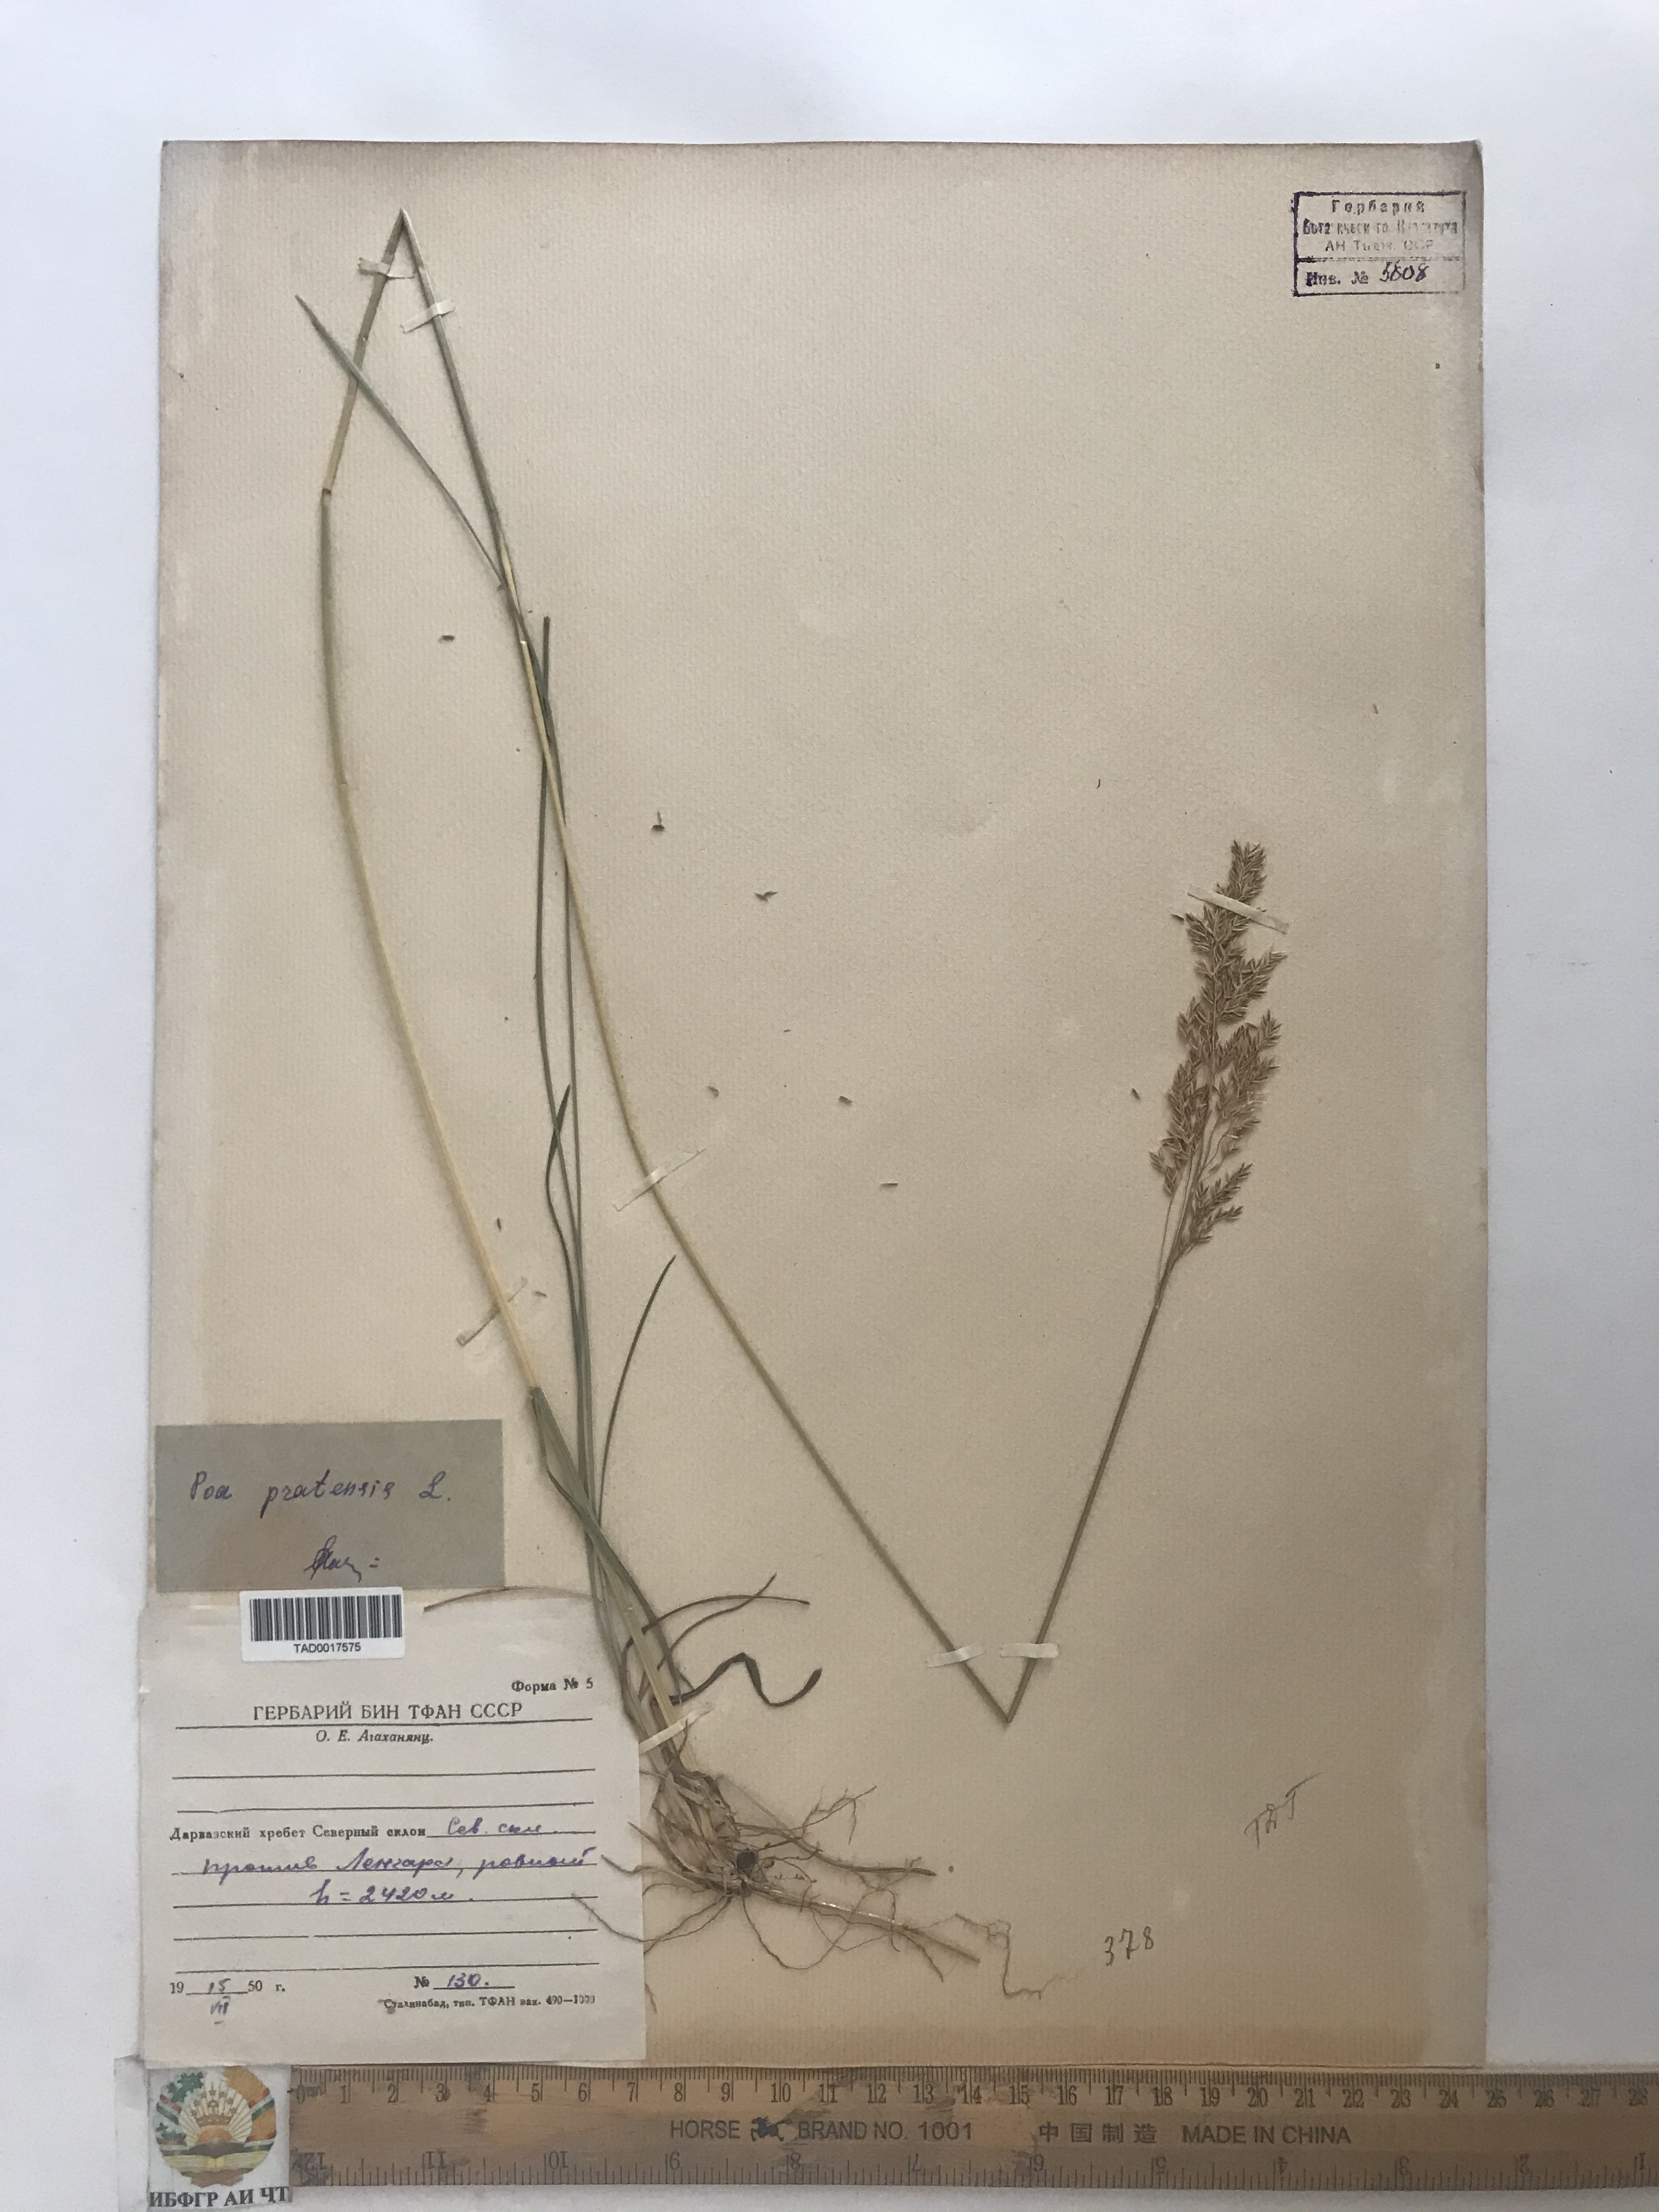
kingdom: Plantae
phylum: Tracheophyta
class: Liliopsida
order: Poales
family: Poaceae
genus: Poa
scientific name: Poa pratensis
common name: Kentucky bluegrass
